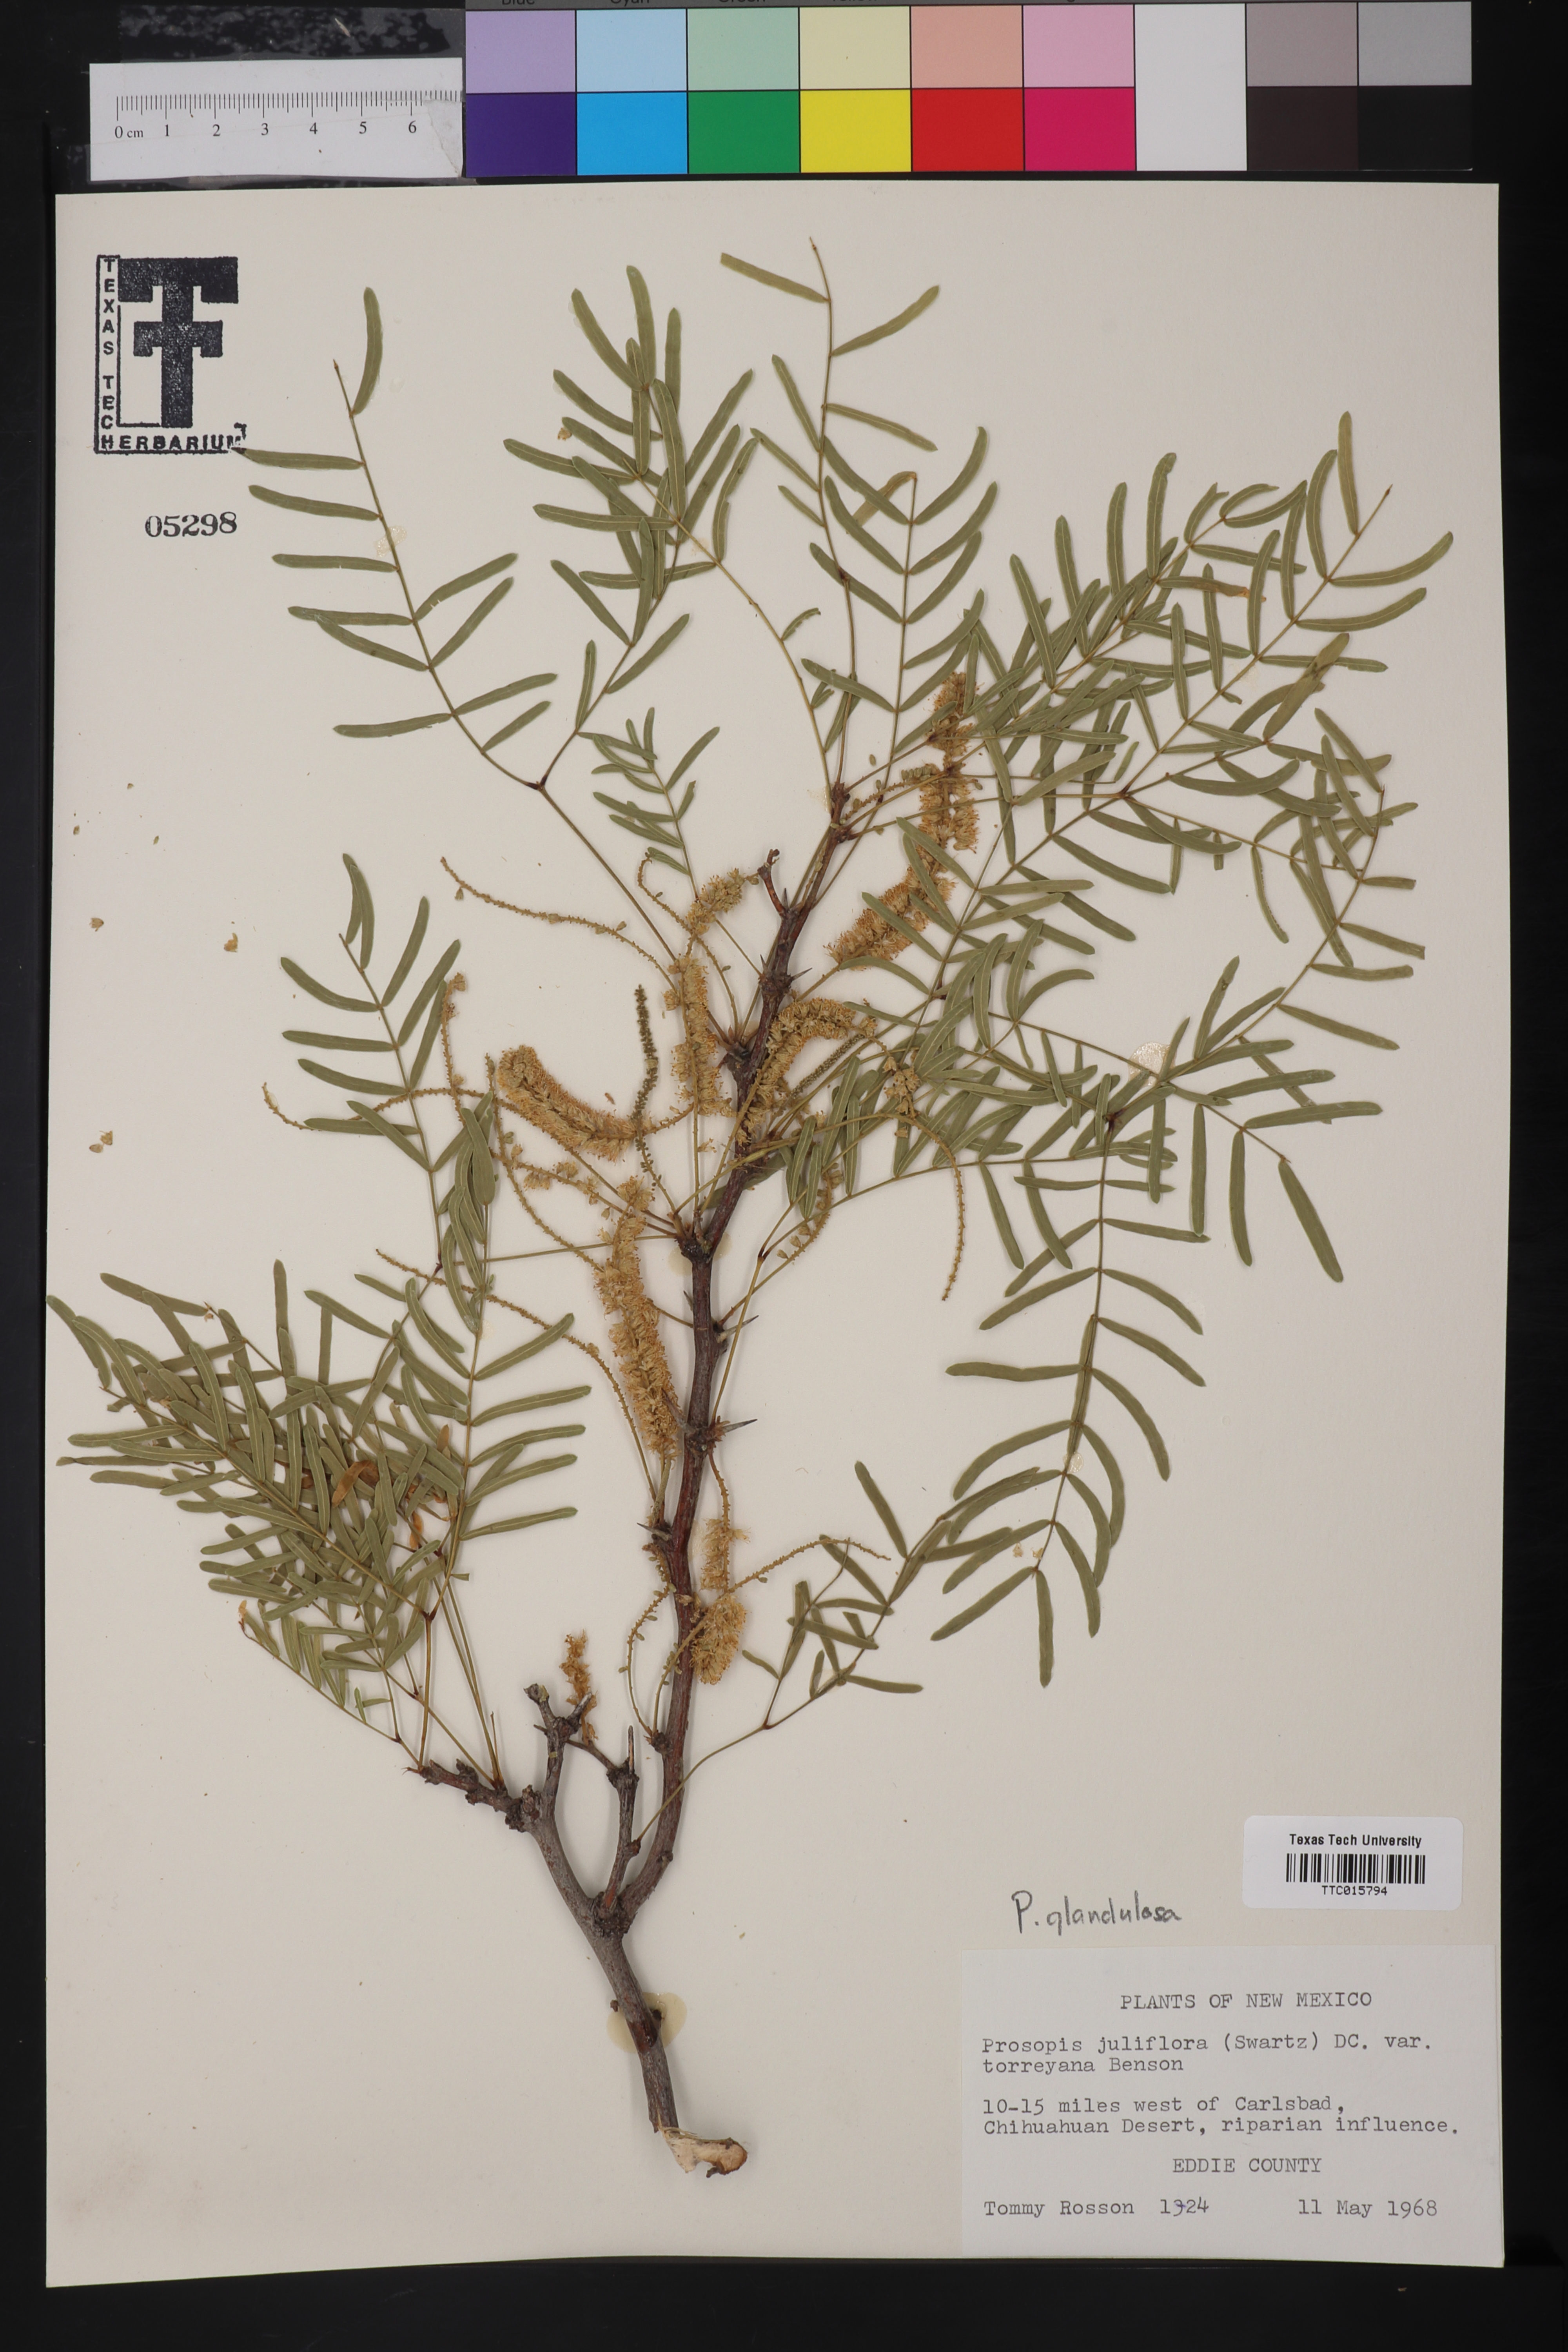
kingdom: Plantae
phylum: Tracheophyta
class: Magnoliopsida
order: Fabales
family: Fabaceae
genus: Prosopis
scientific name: Prosopis glandulosa
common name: Honey mesquite
